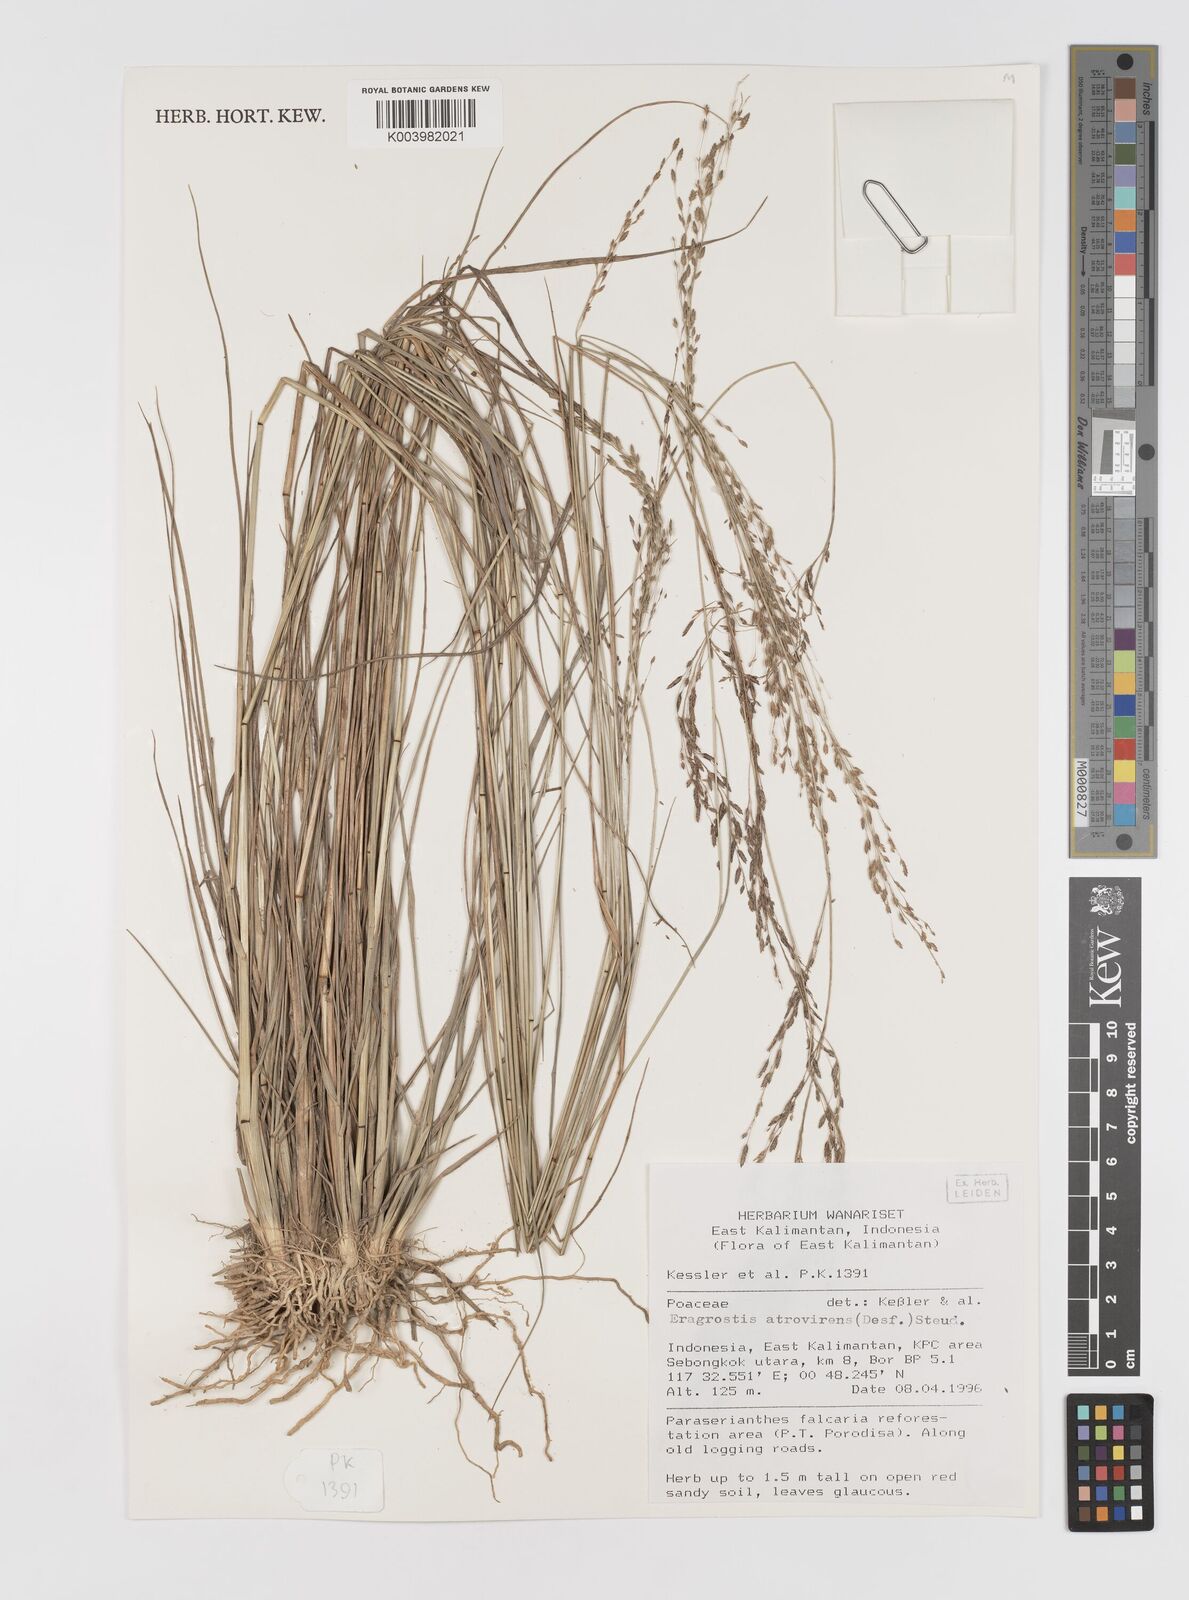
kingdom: Plantae
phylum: Tracheophyta
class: Liliopsida
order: Poales
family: Poaceae
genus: Eragrostis
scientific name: Eragrostis atrovirens
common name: Thalia lovegrass
